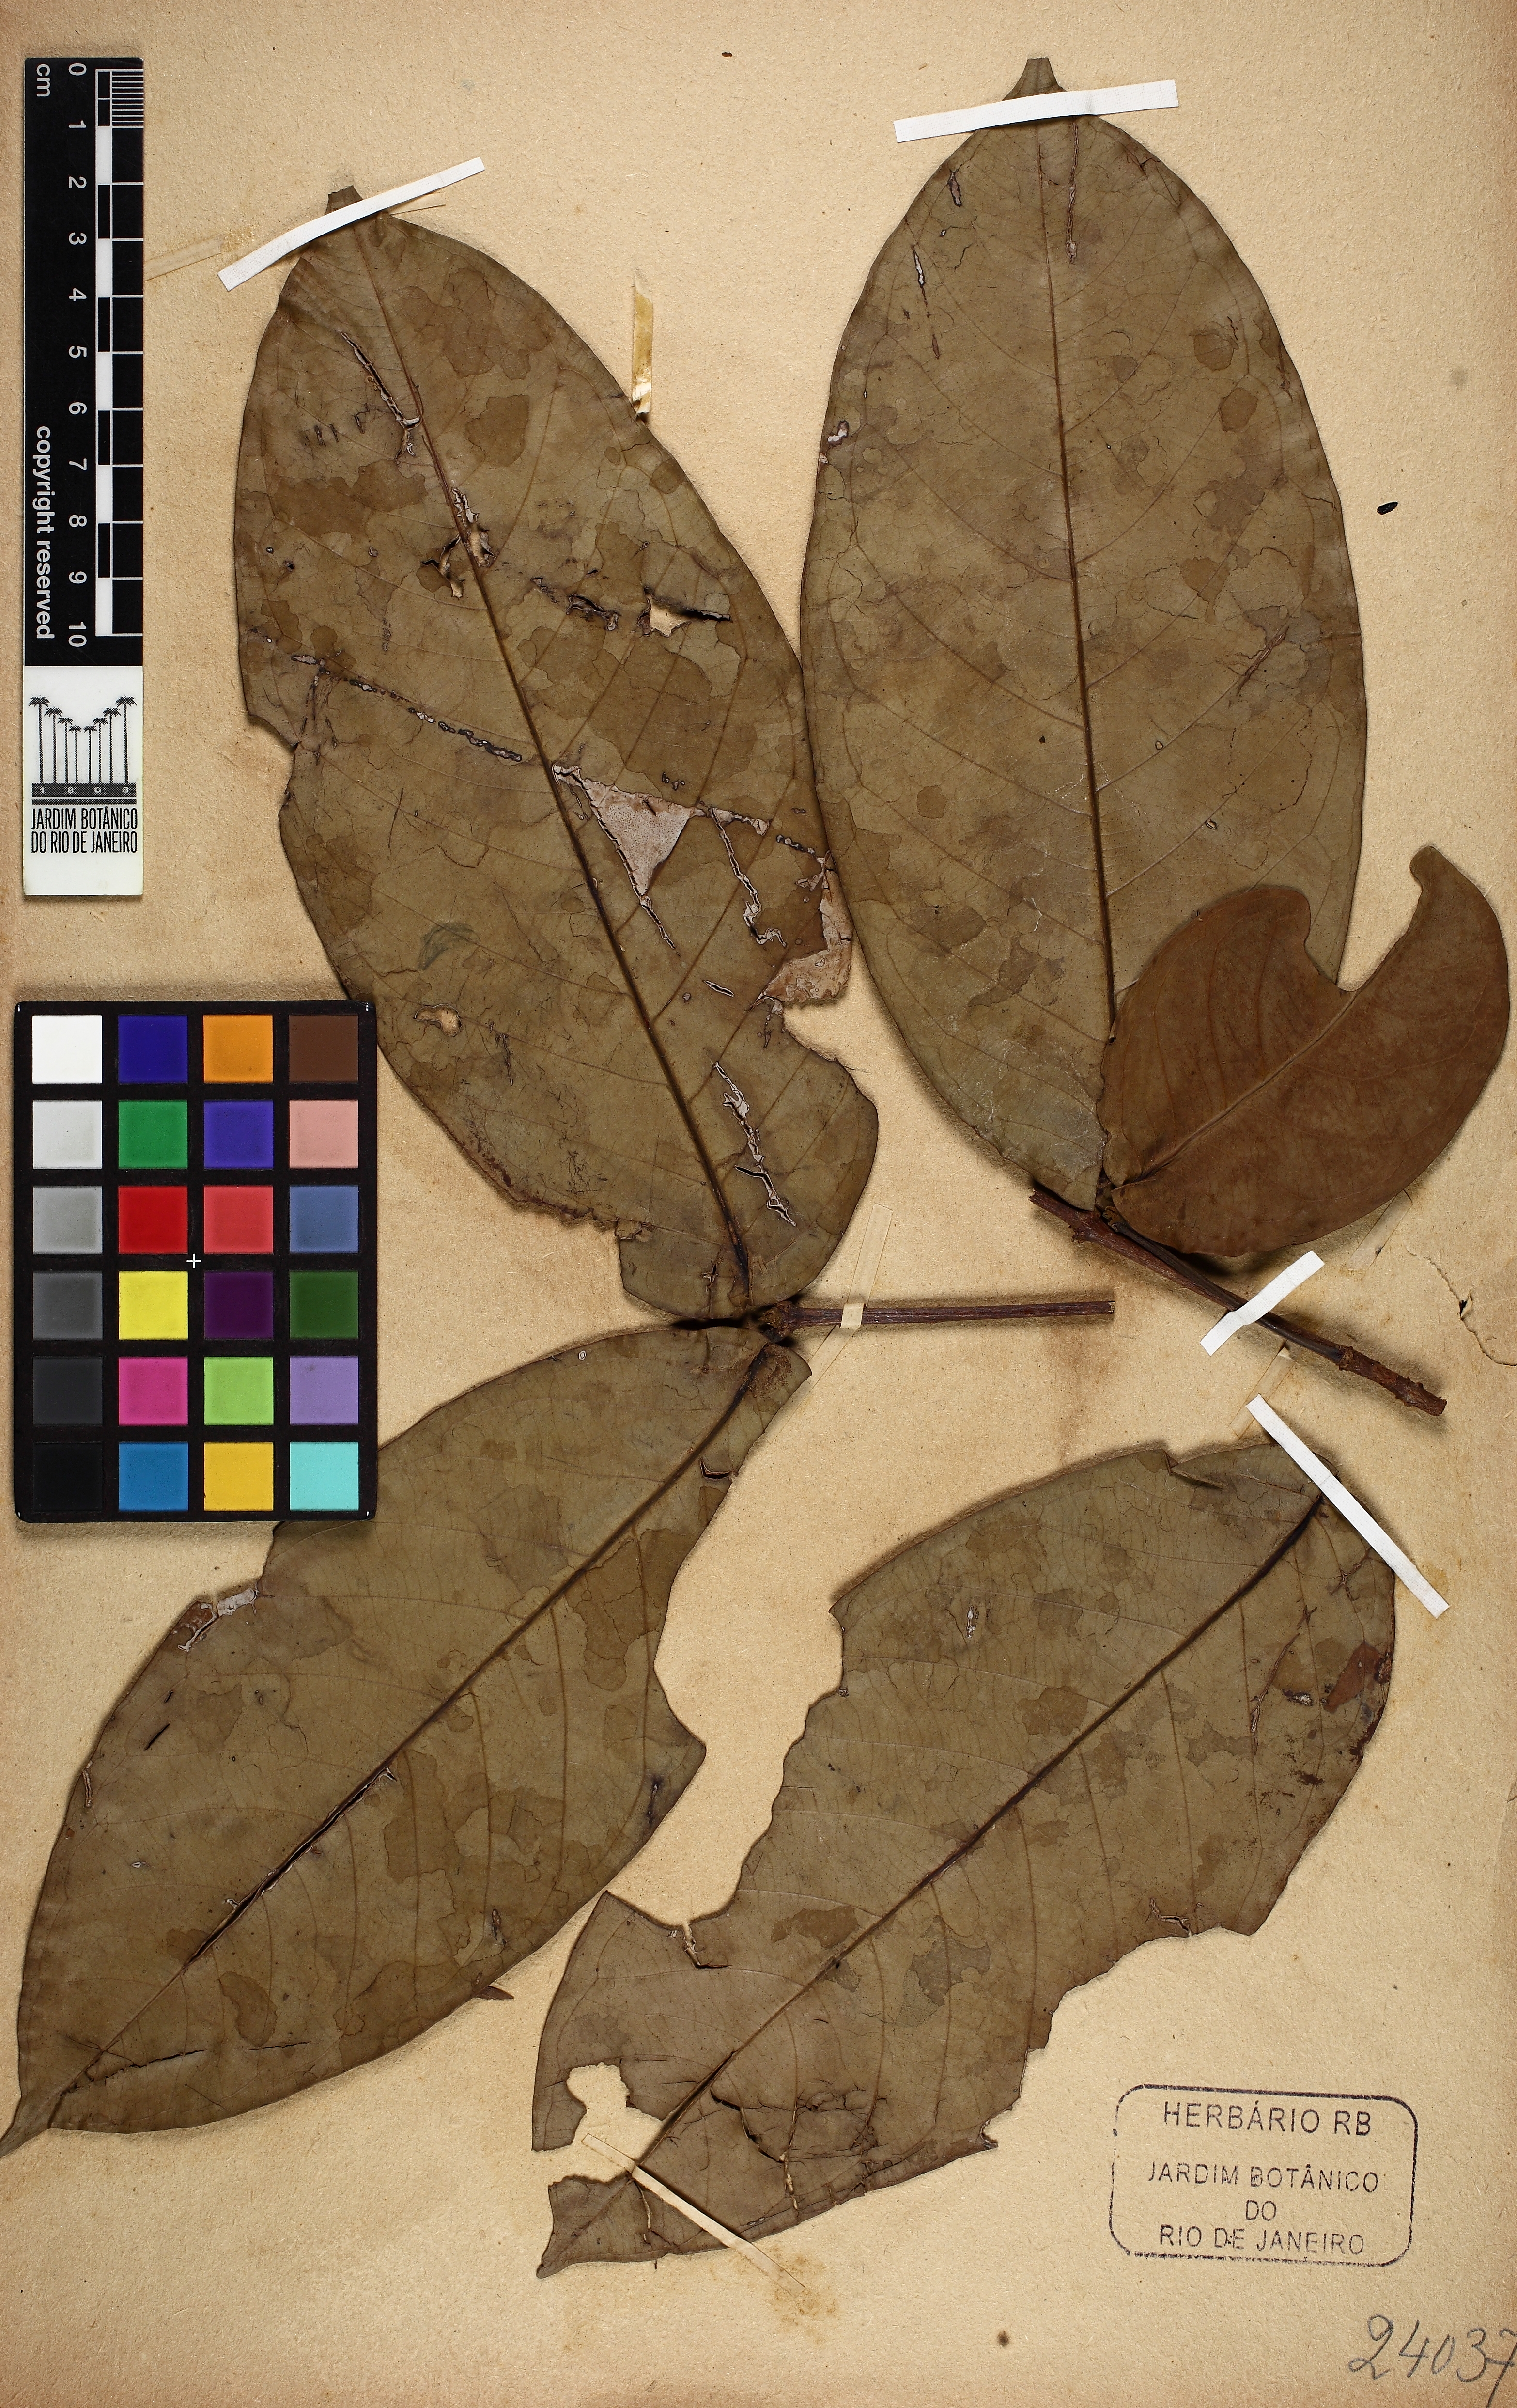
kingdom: Plantae
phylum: Tracheophyta
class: Magnoliopsida
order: Myrtales
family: Vochysiaceae
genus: Erisma
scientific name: Erisma bracteosum
